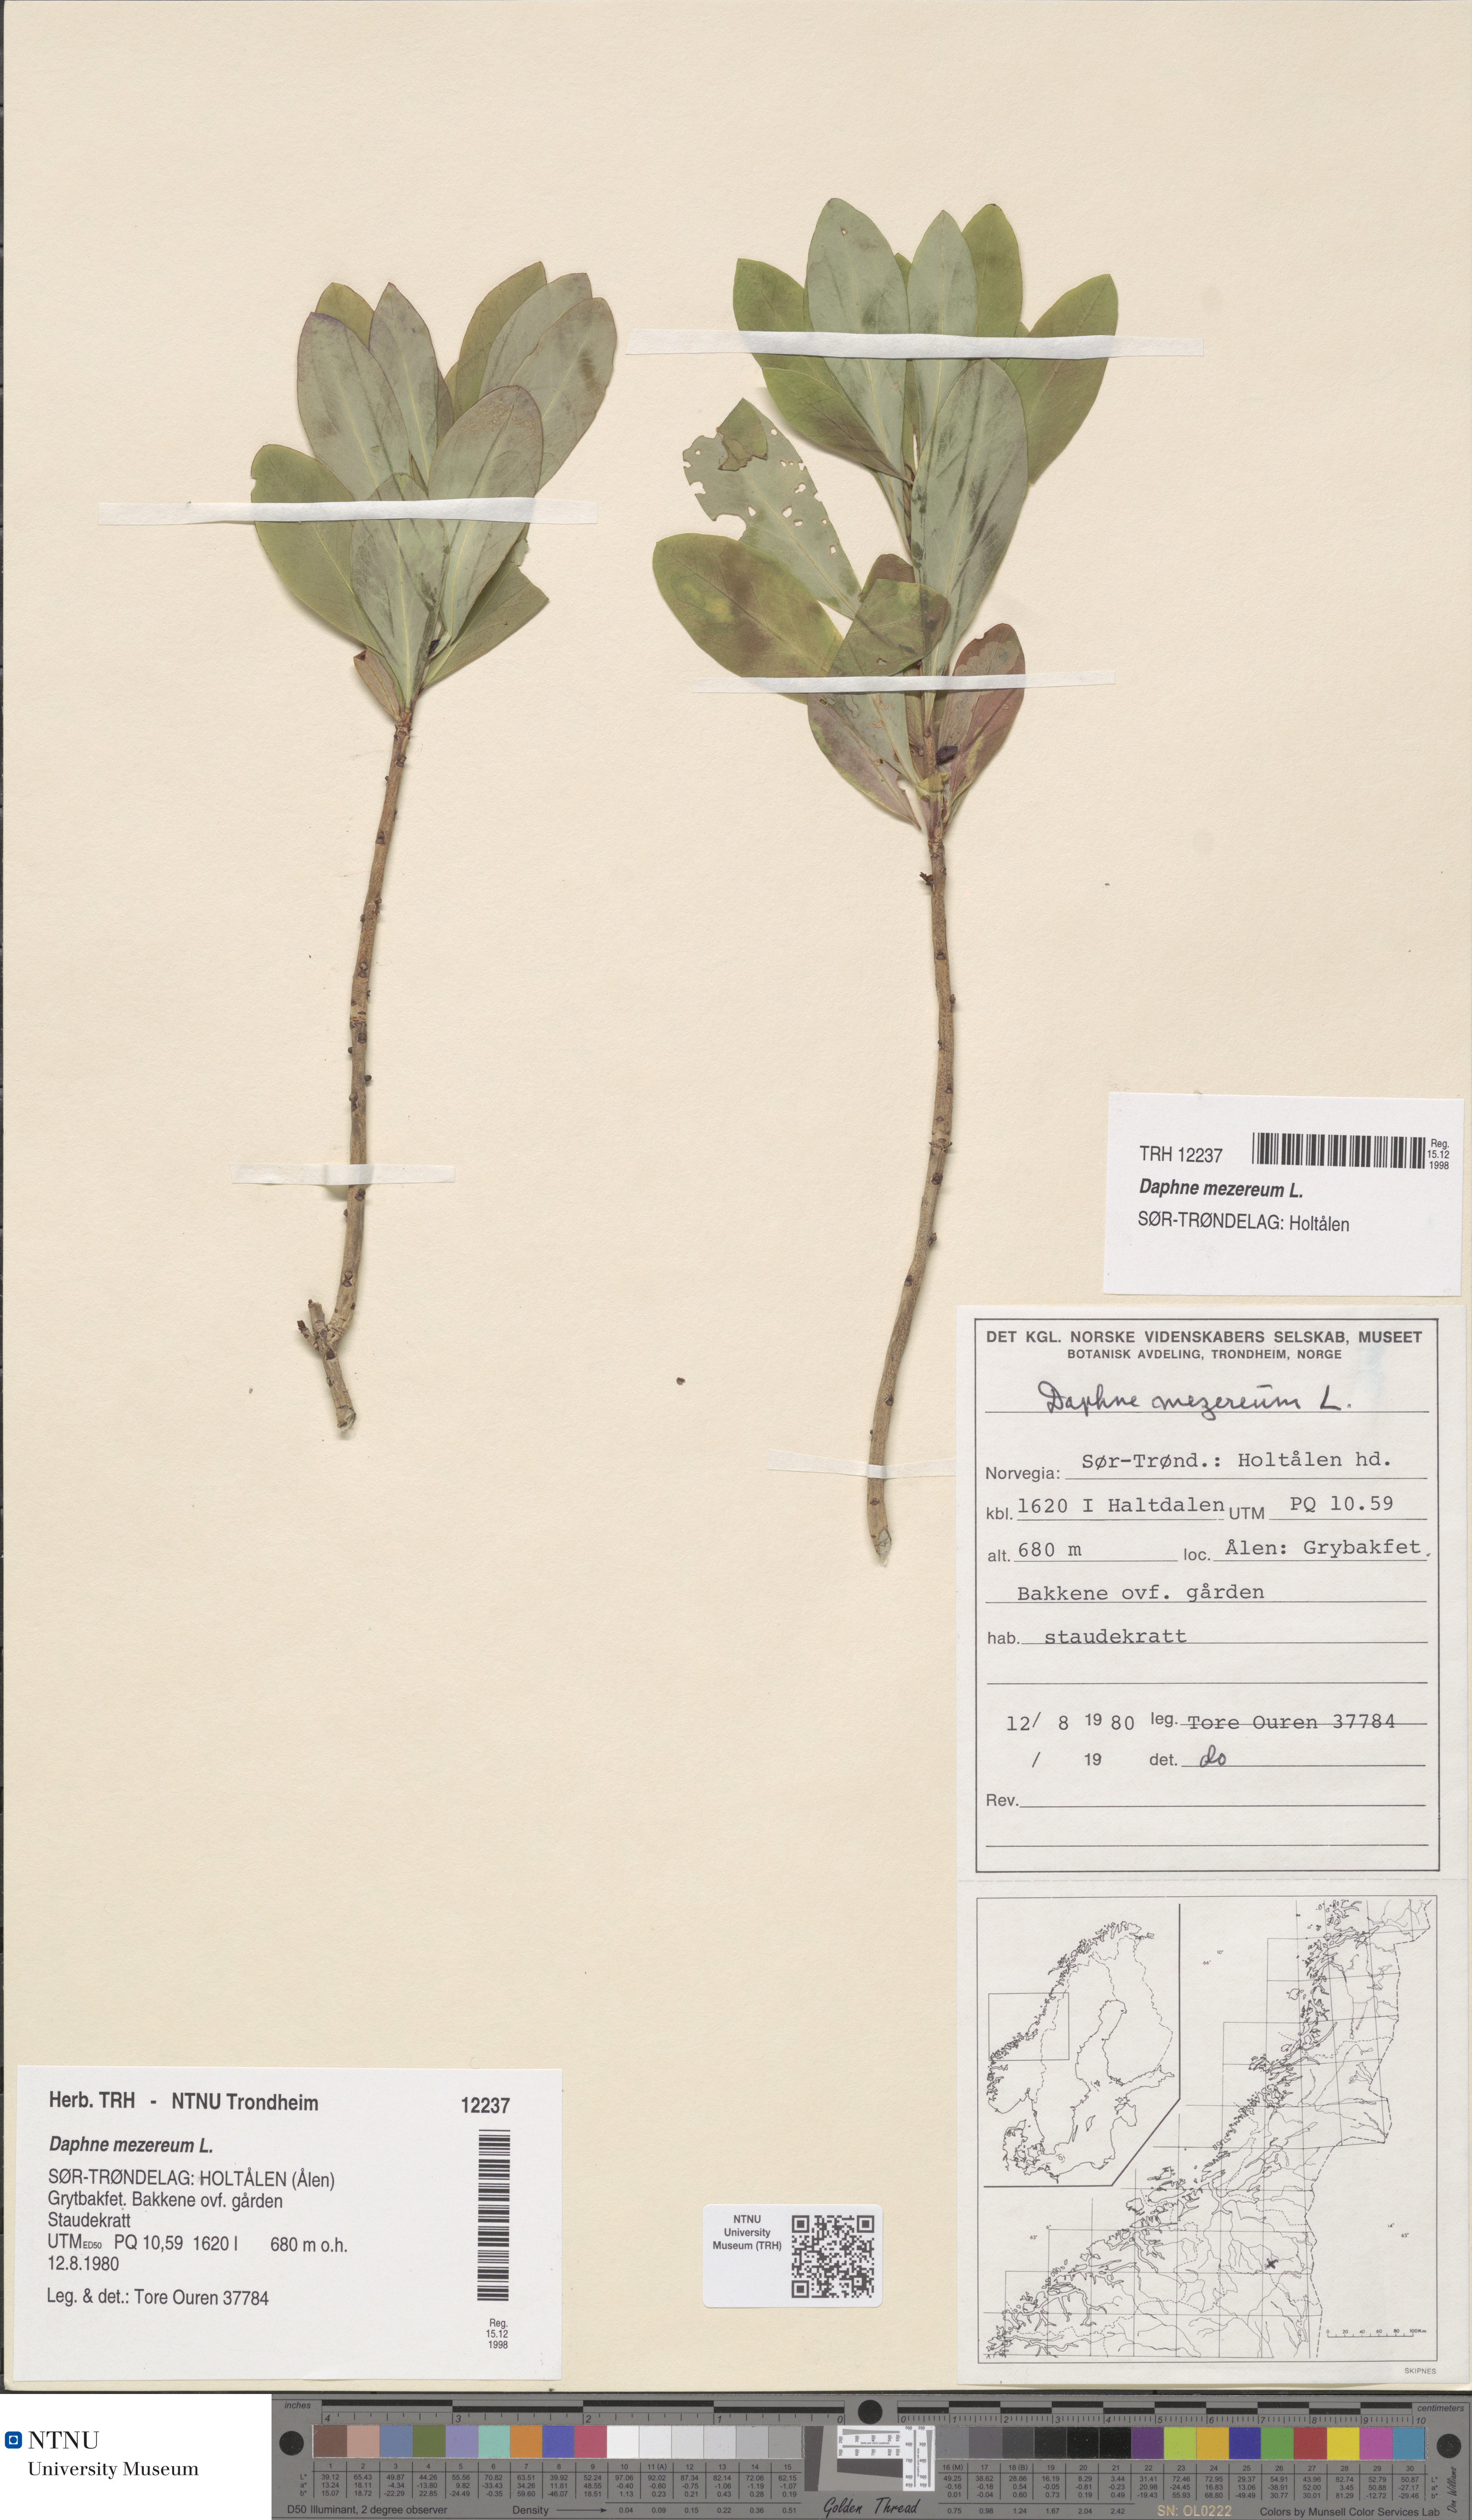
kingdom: Plantae
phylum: Tracheophyta
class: Magnoliopsida
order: Malvales
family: Thymelaeaceae
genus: Daphne
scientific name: Daphne mezereum
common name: Mezereon
